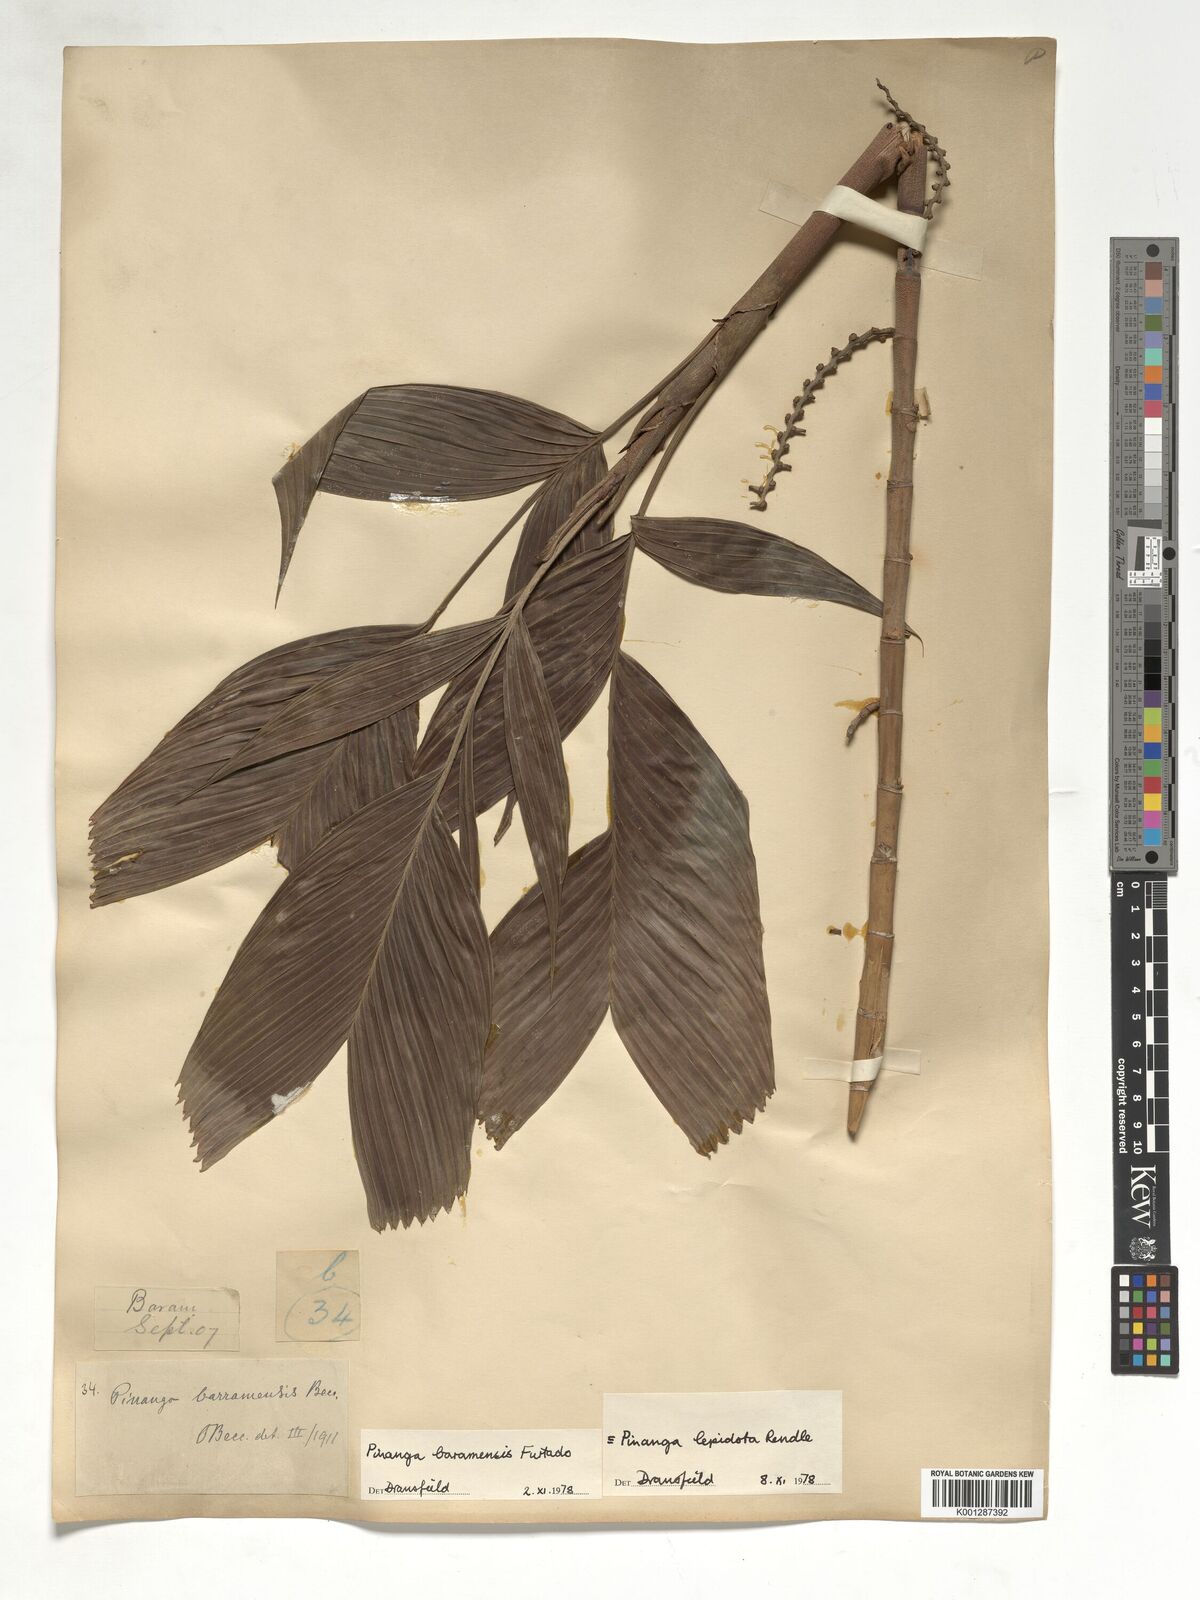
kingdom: Plantae
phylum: Tracheophyta
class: Liliopsida
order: Arecales
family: Arecaceae
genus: Pinanga
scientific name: Pinanga lepidota
